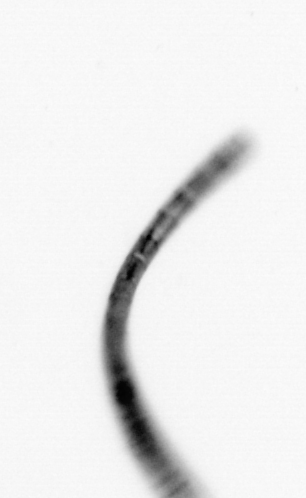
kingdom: Chromista
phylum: Ochrophyta
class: Bacillariophyceae
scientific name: Bacillariophyceae
